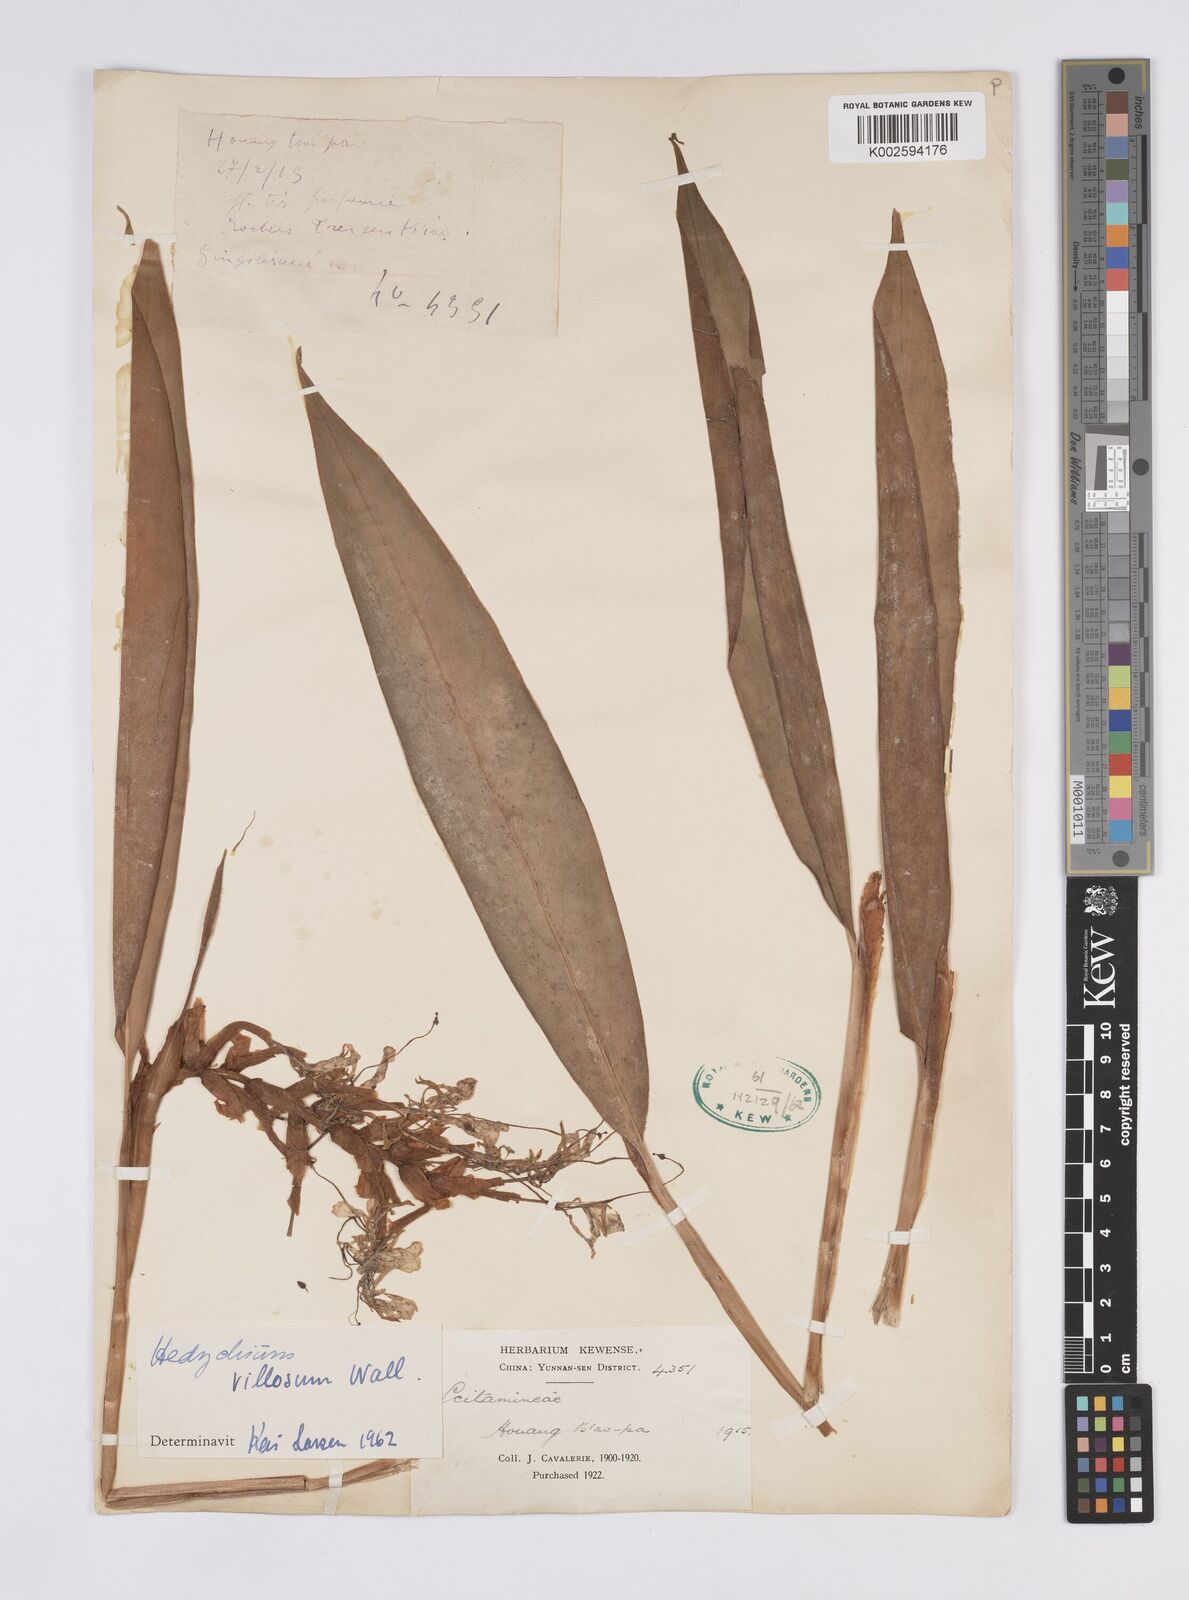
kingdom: Plantae
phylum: Tracheophyta
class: Liliopsida
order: Zingiberales
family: Zingiberaceae
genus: Hedychium
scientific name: Hedychium villosum
